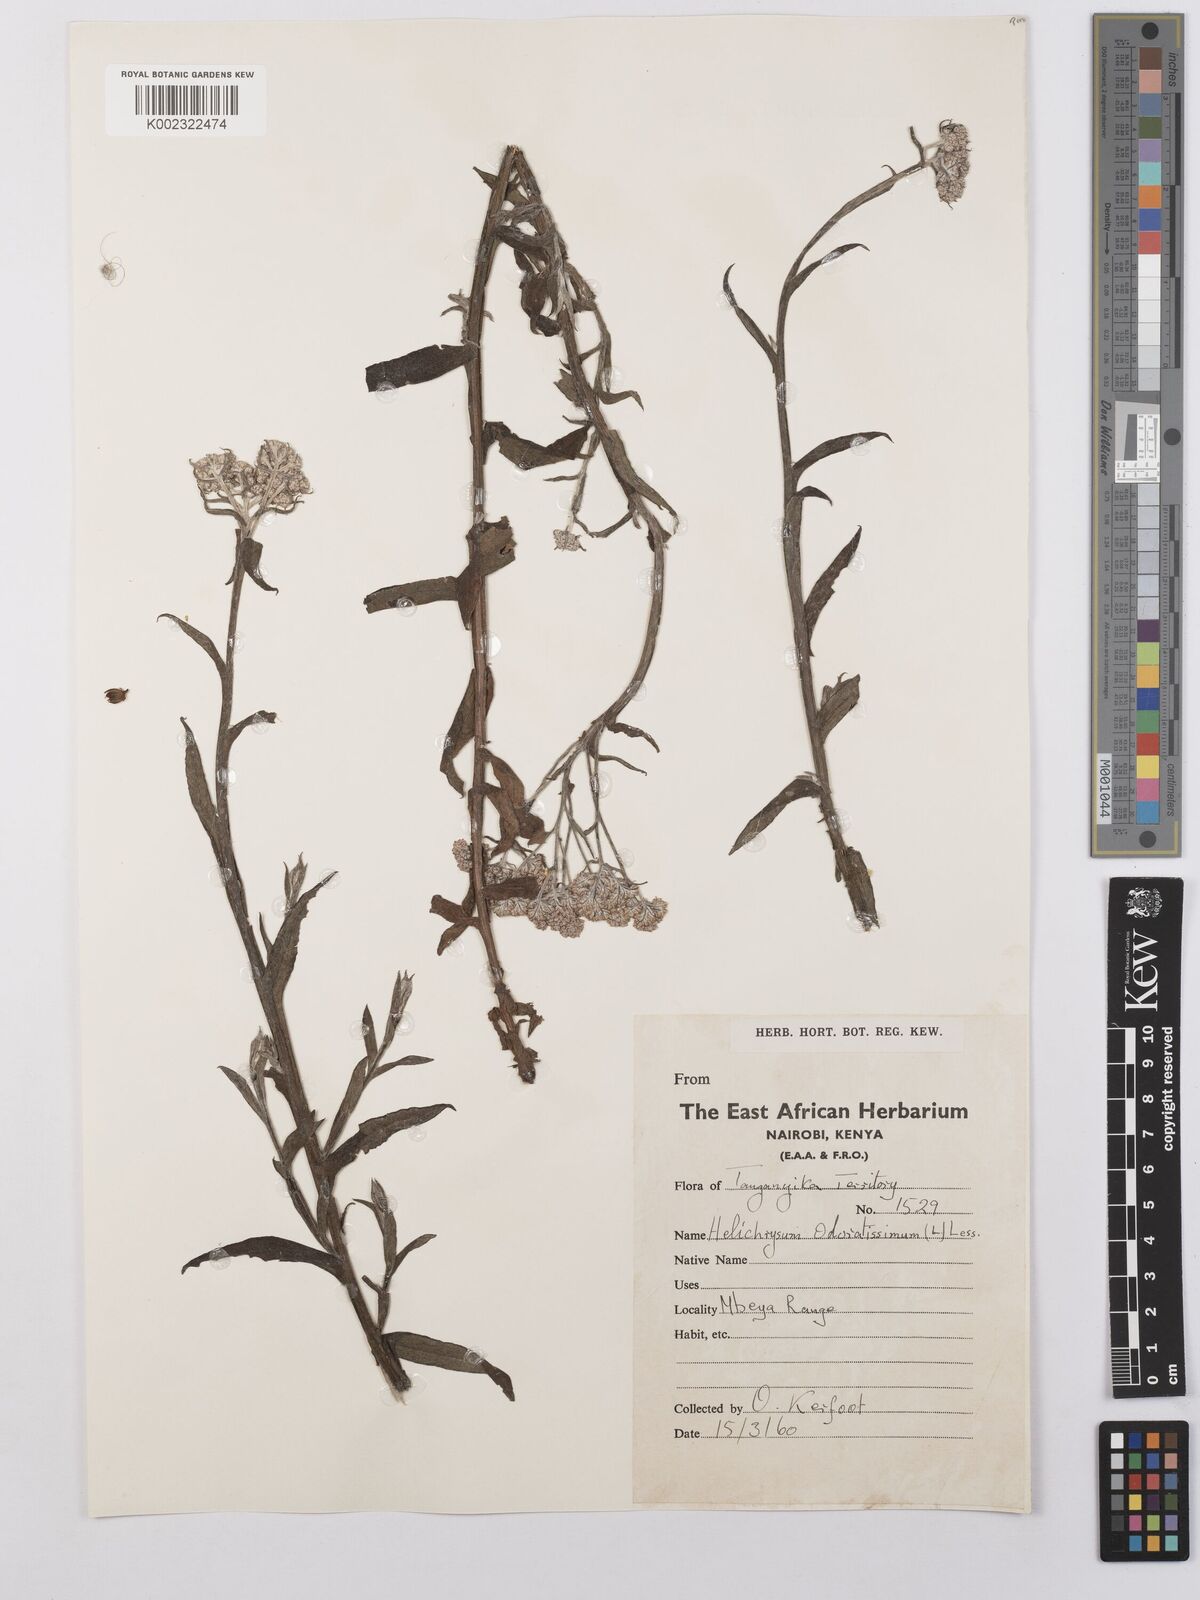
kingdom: Plantae
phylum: Tracheophyta
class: Magnoliopsida
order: Asterales
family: Asteraceae
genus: Helichrysum
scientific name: Helichrysum stenopterum
